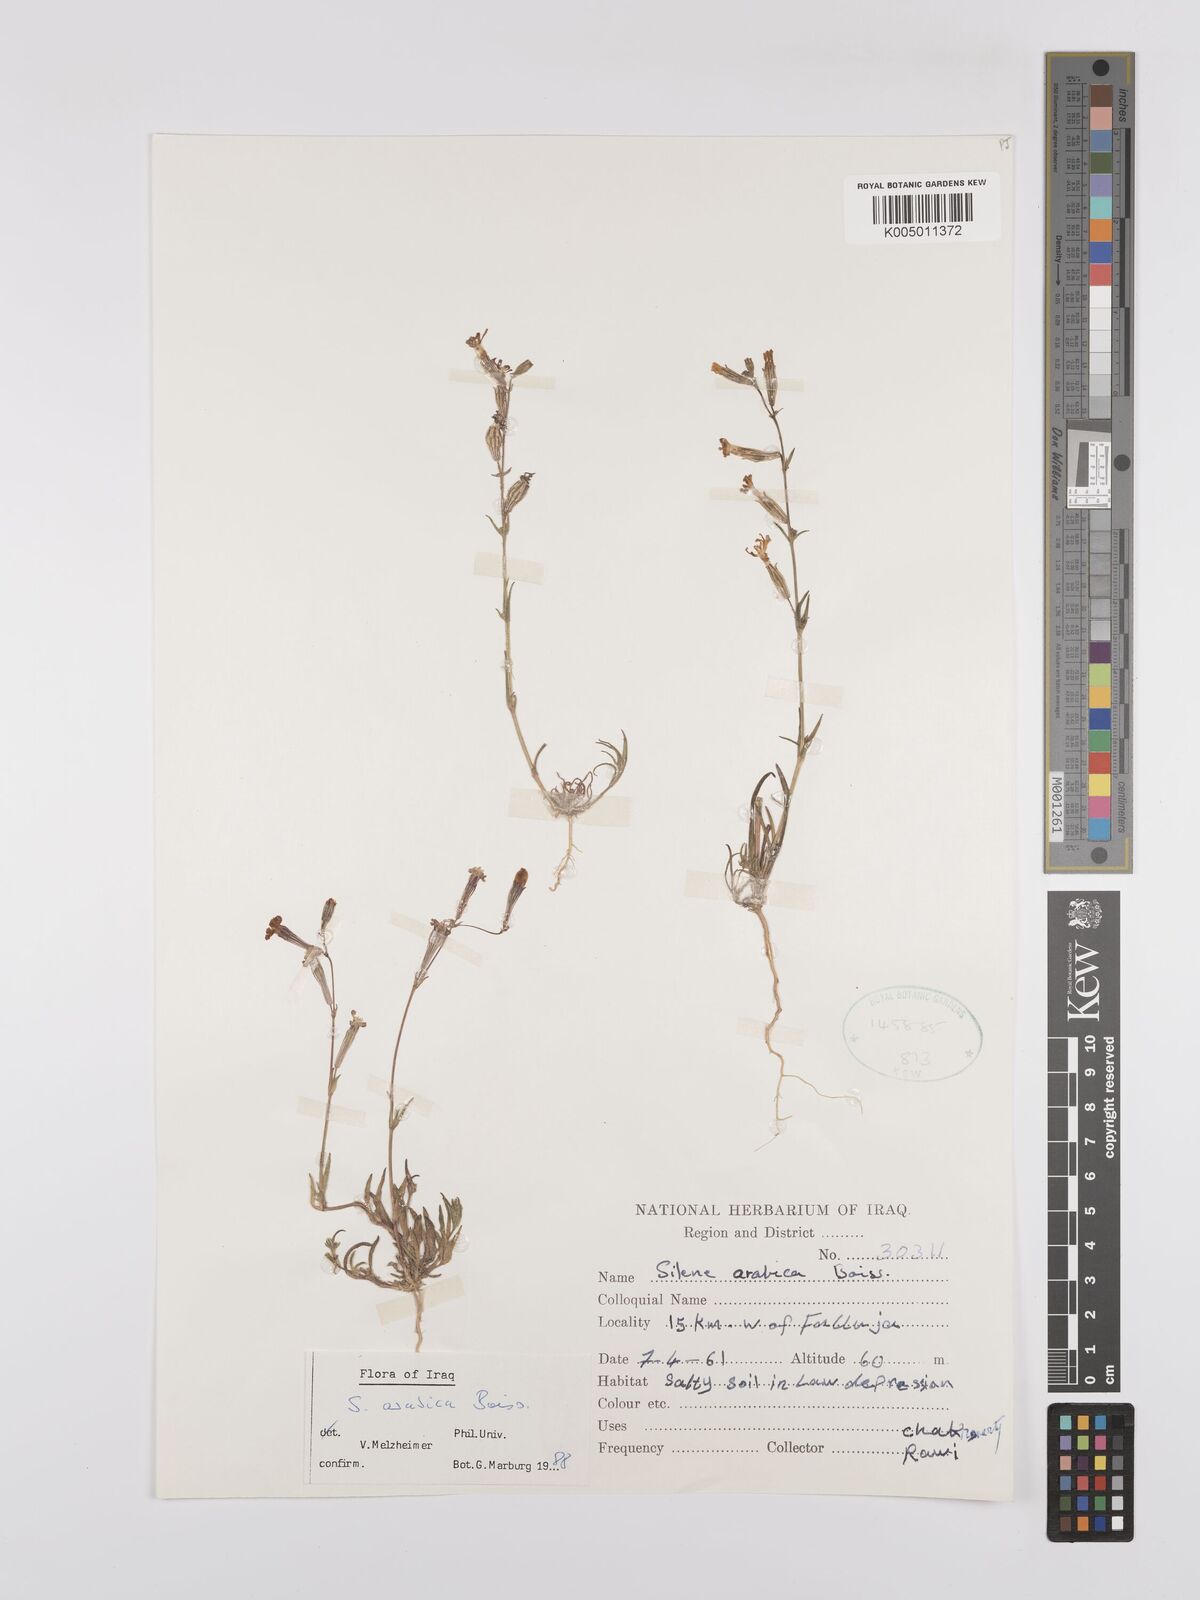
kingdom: Plantae
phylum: Tracheophyta
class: Magnoliopsida
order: Caryophyllales
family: Caryophyllaceae
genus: Silene
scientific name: Silene arabica
